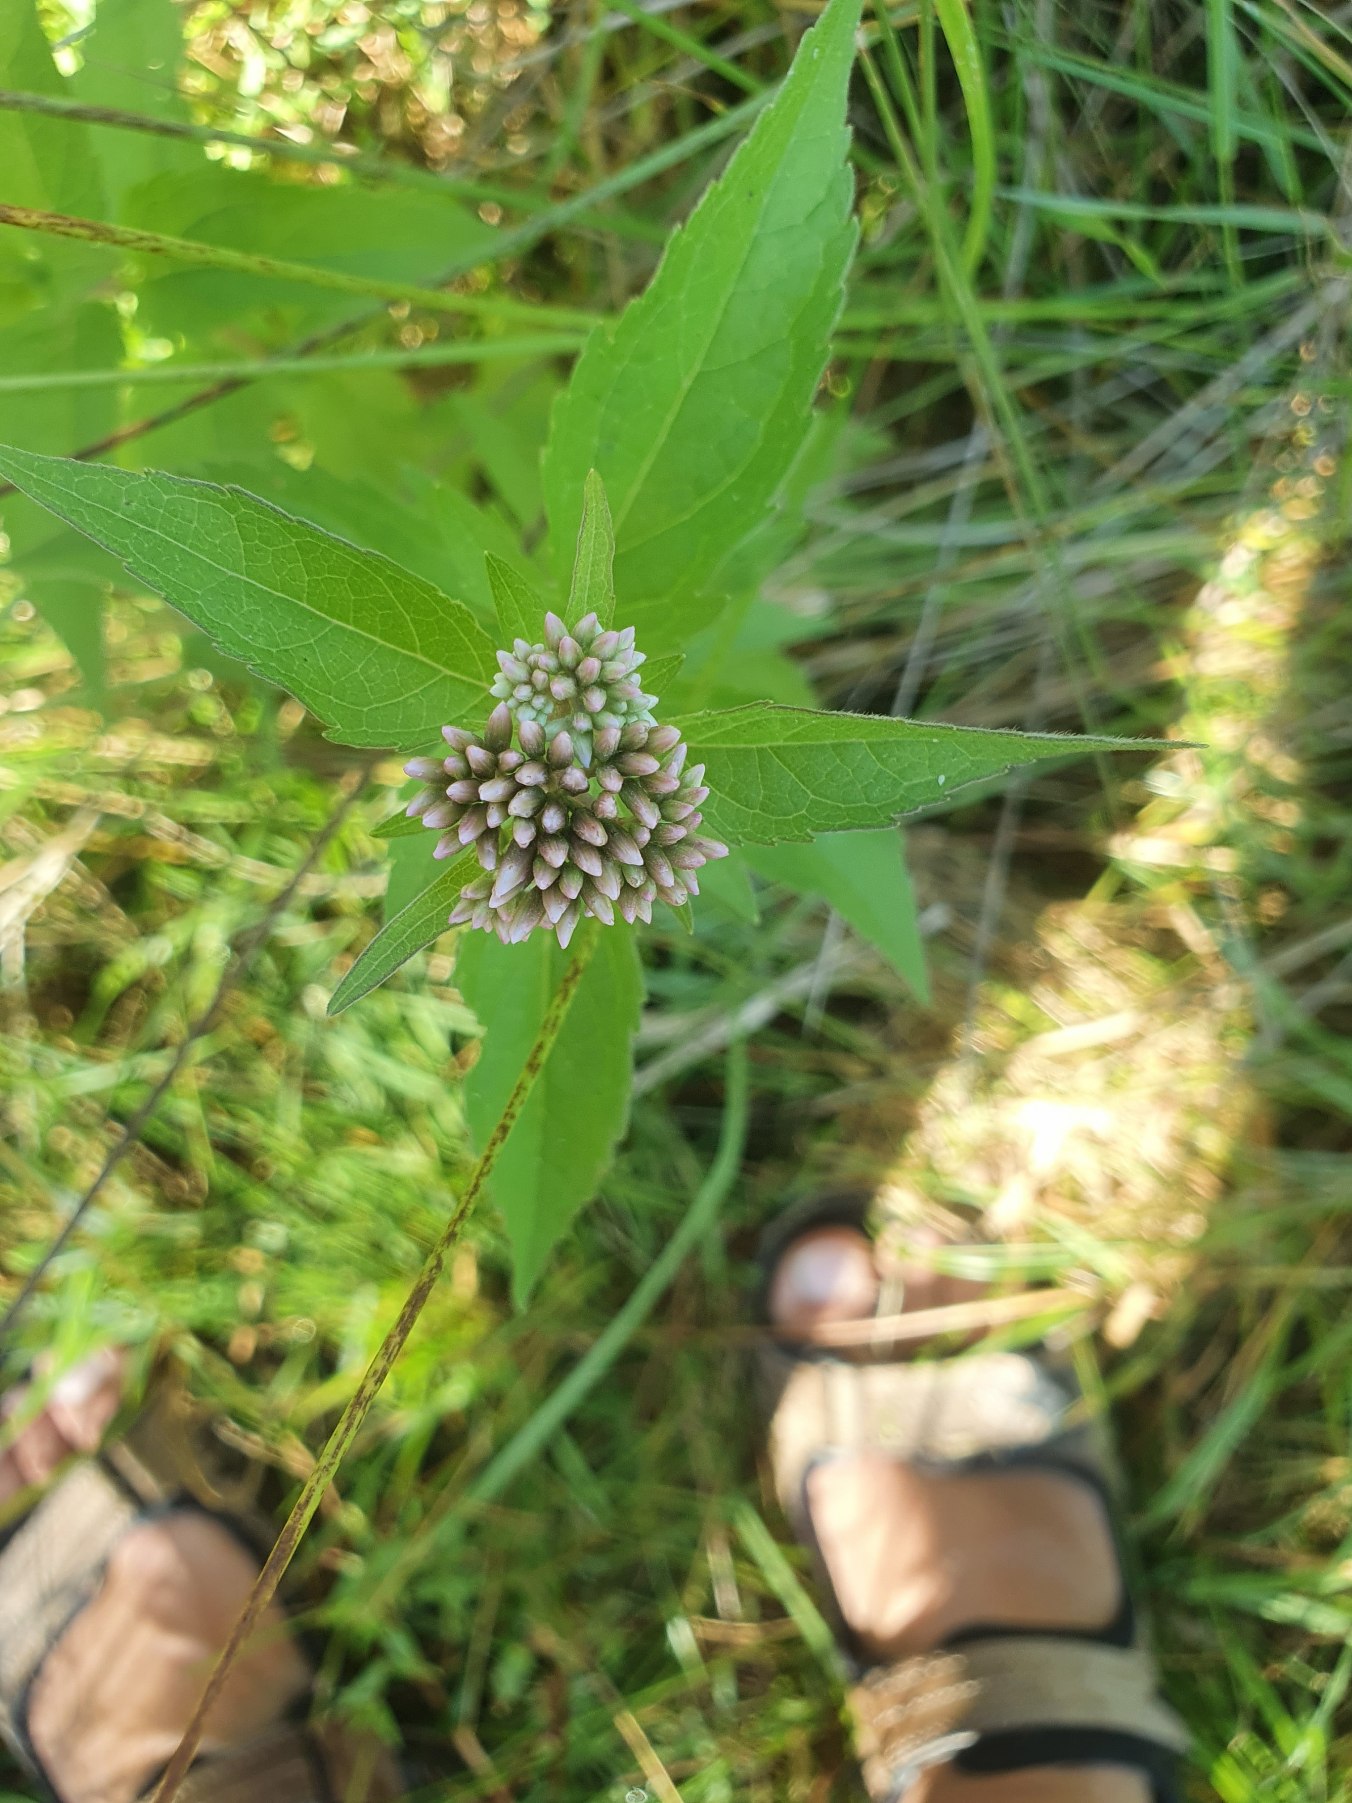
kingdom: Plantae
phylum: Tracheophyta
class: Magnoliopsida
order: Asterales
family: Asteraceae
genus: Eupatorium
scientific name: Eupatorium cannabinum
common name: Hjortetrøst
